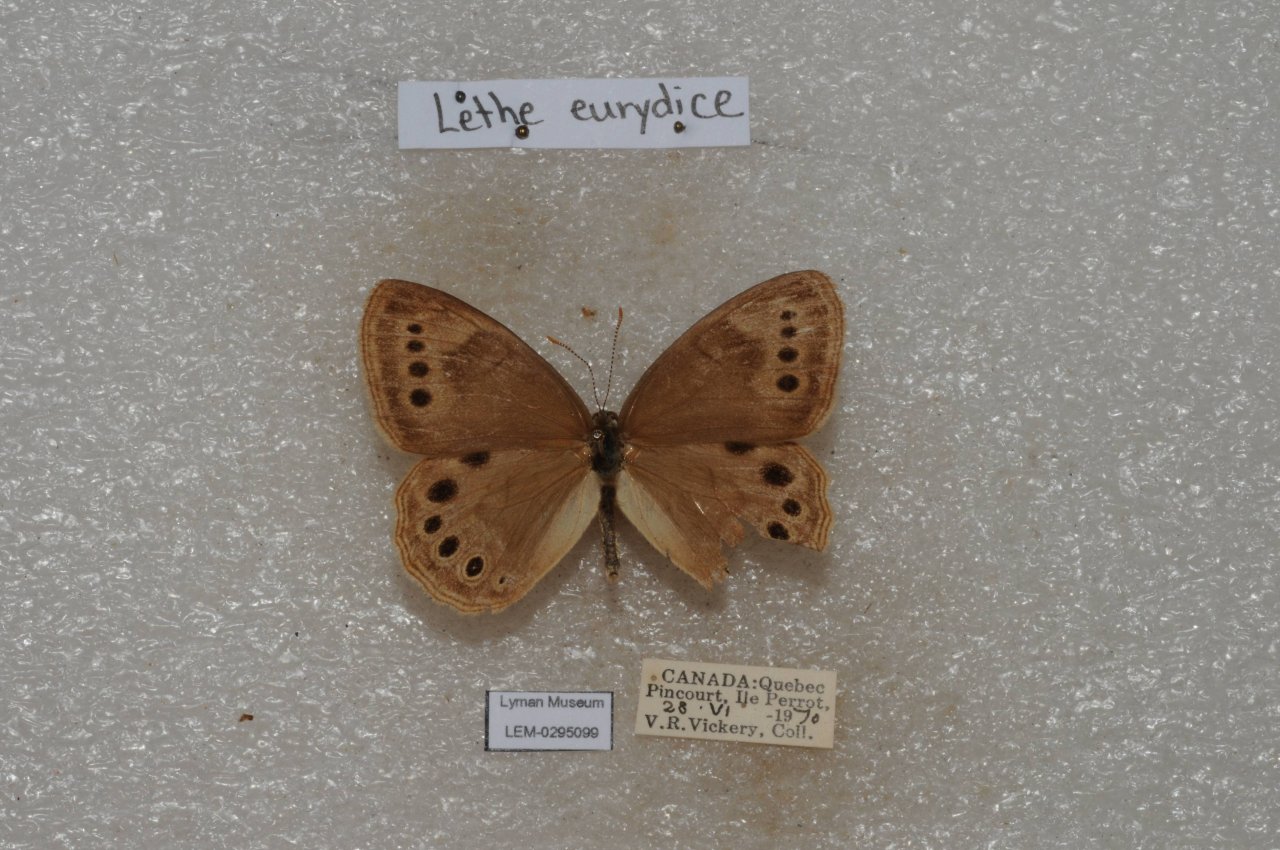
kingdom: Animalia
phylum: Arthropoda
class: Insecta
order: Lepidoptera
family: Nymphalidae
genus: Lethe
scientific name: Lethe eurydice
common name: Eyed Brown
